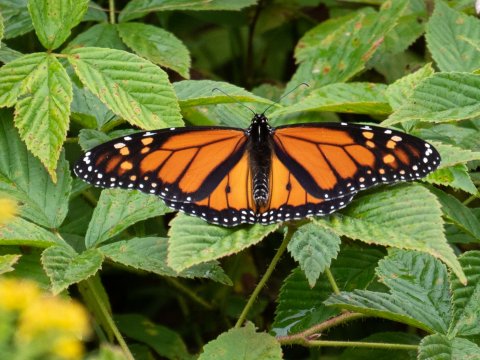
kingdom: Animalia
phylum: Arthropoda
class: Insecta
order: Lepidoptera
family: Nymphalidae
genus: Danaus
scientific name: Danaus plexippus
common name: Monarch
